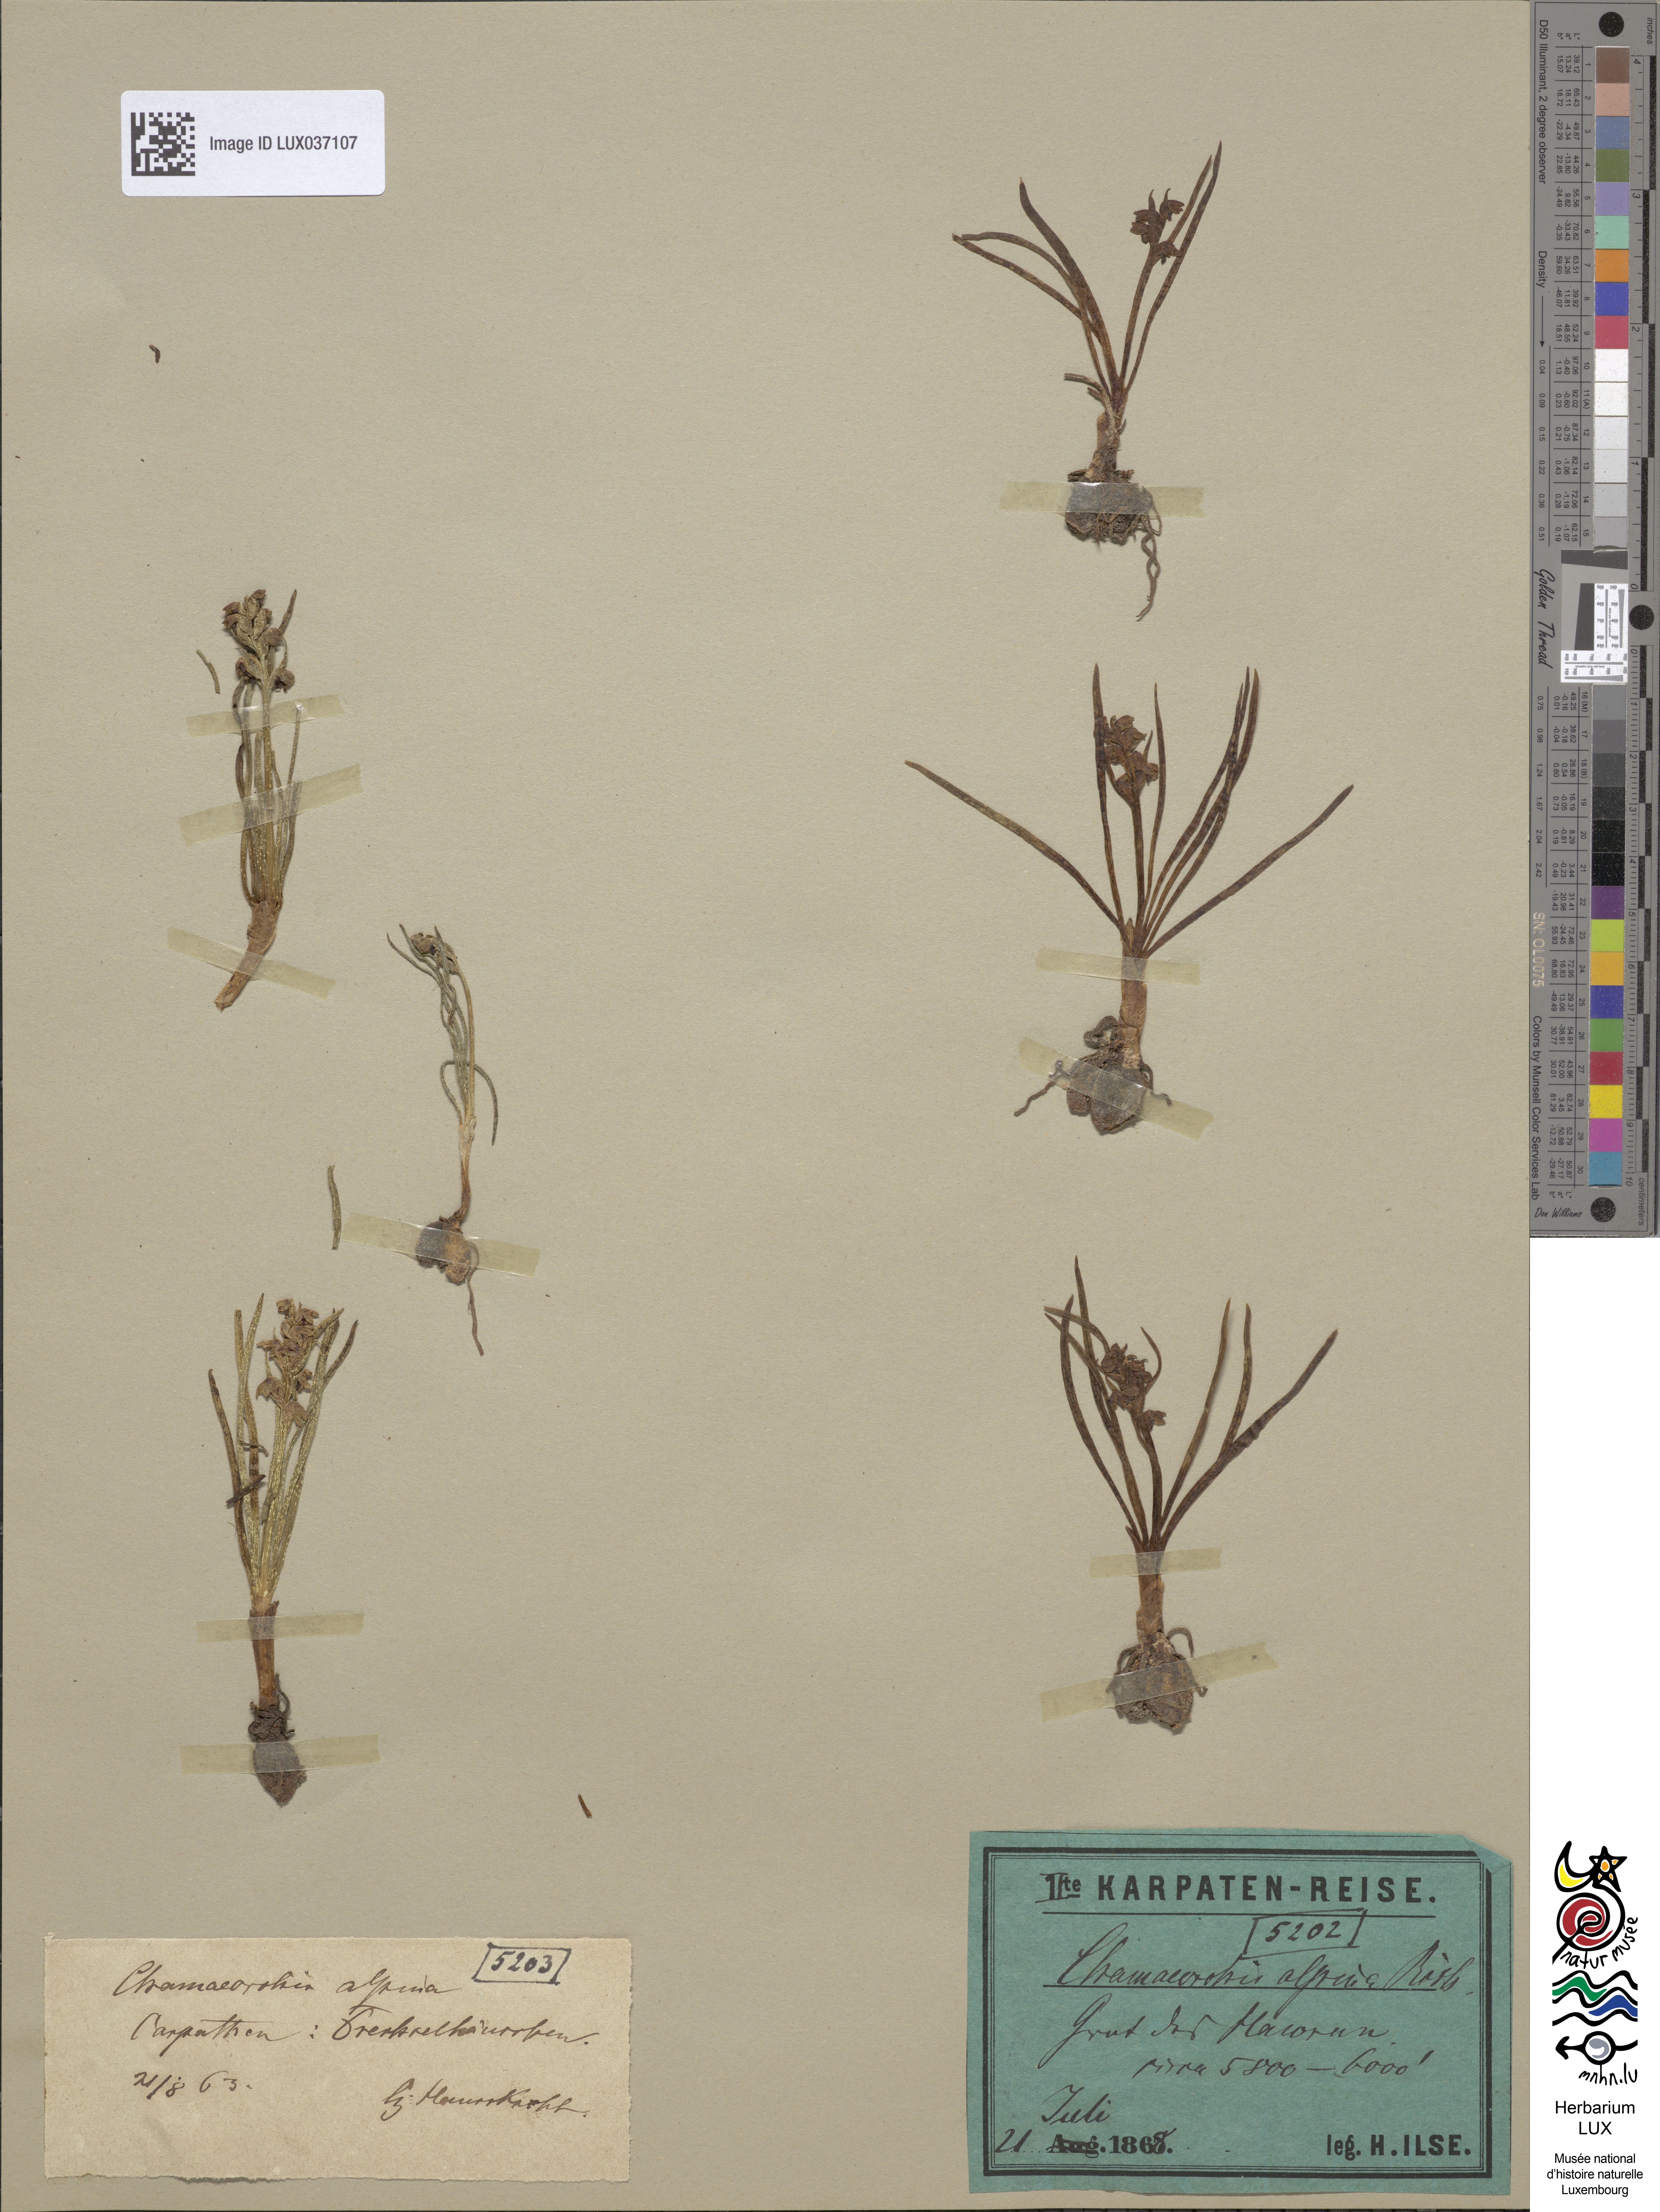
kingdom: Plantae
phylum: Tracheophyta
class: Liliopsida
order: Asparagales
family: Orchidaceae
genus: Chamorchis
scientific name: Chamorchis alpina
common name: Alpine chamorchis
